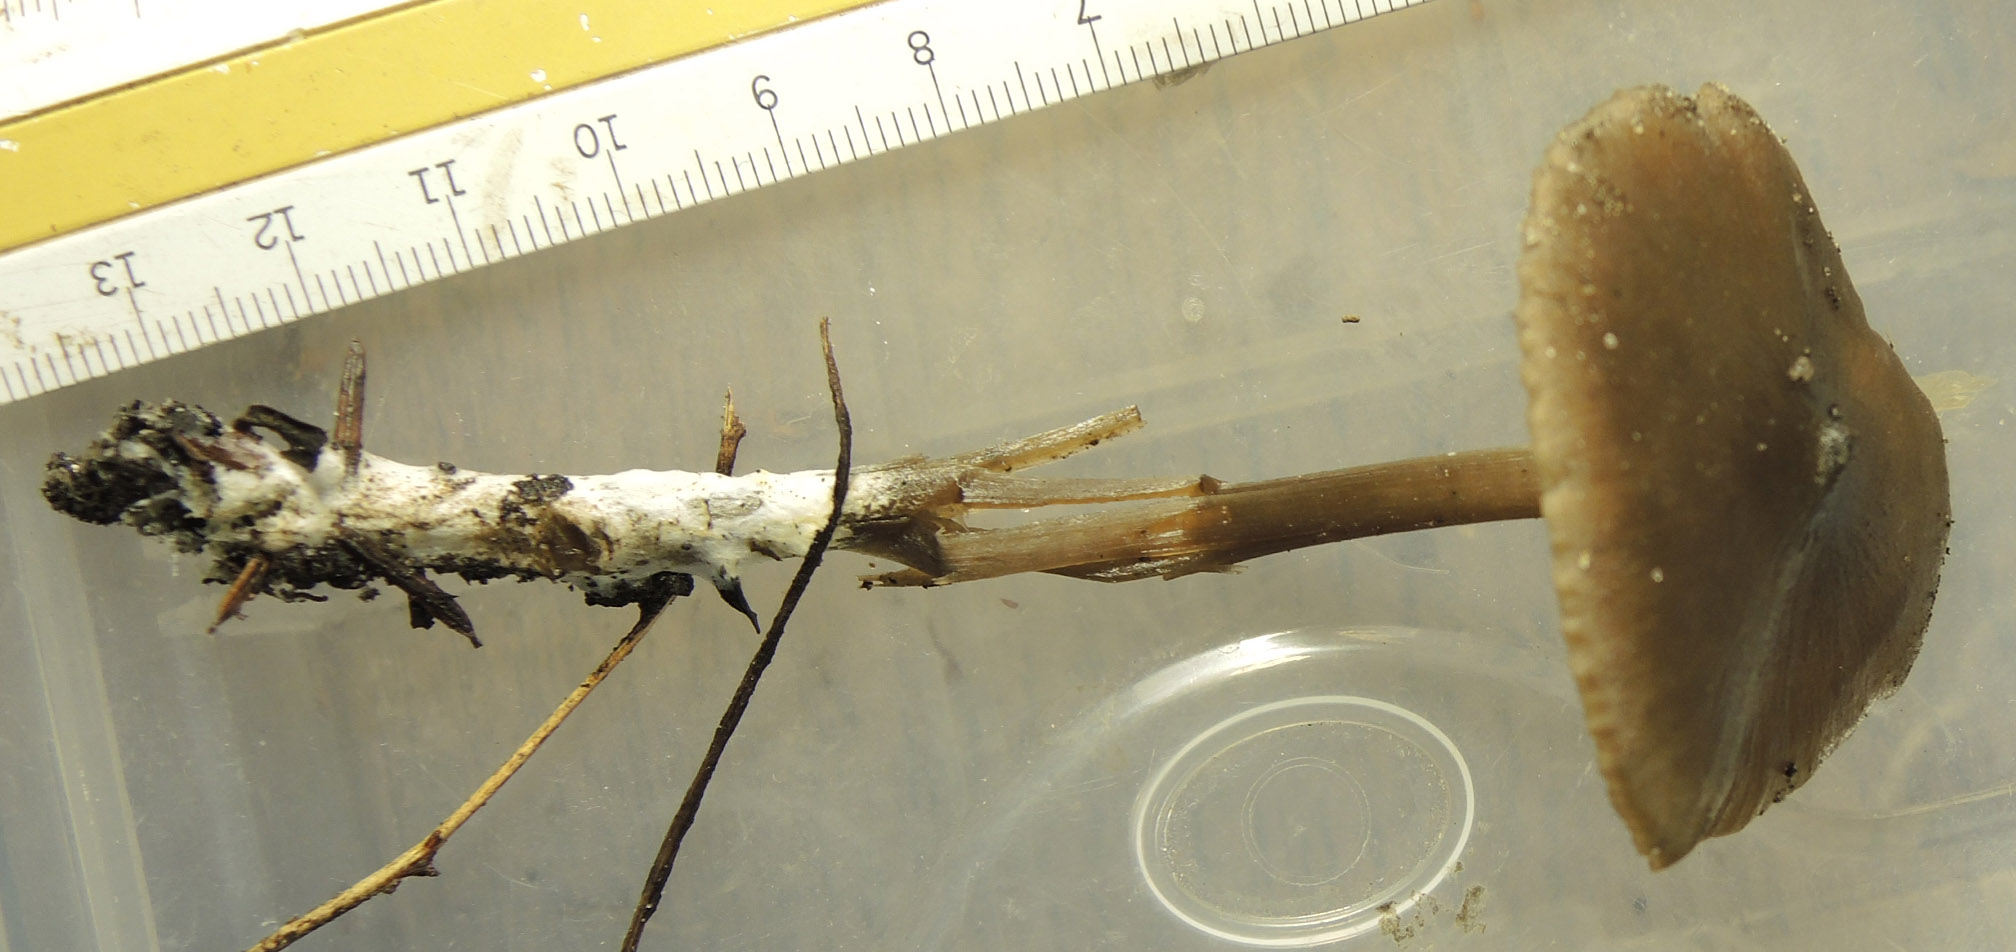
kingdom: Fungi
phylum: Basidiomycota
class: Agaricomycetes
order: Agaricales
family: Entolomataceae
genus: Entoloma
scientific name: Entoloma hebes
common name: krat-rødblad
